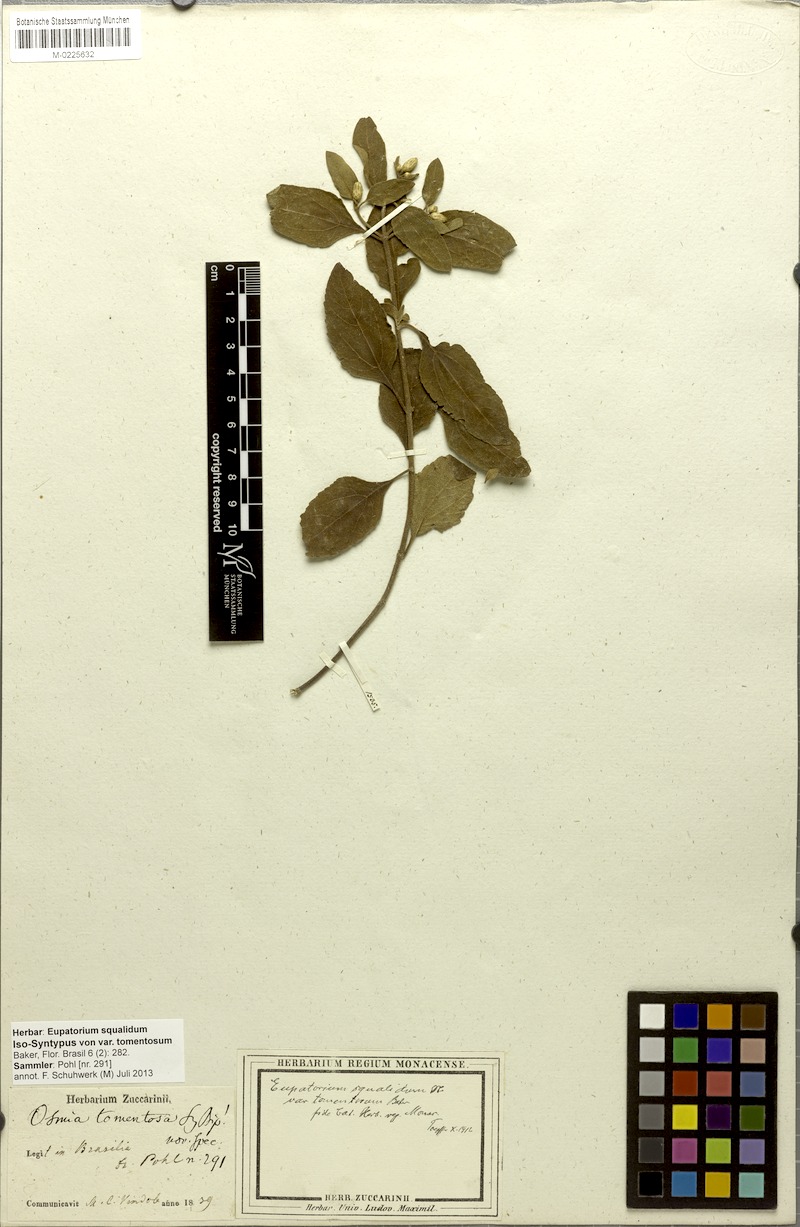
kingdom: Plantae
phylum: Tracheophyta
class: Magnoliopsida
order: Asterales
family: Asteraceae
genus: Chromolaena
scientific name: Chromolaena squalida
